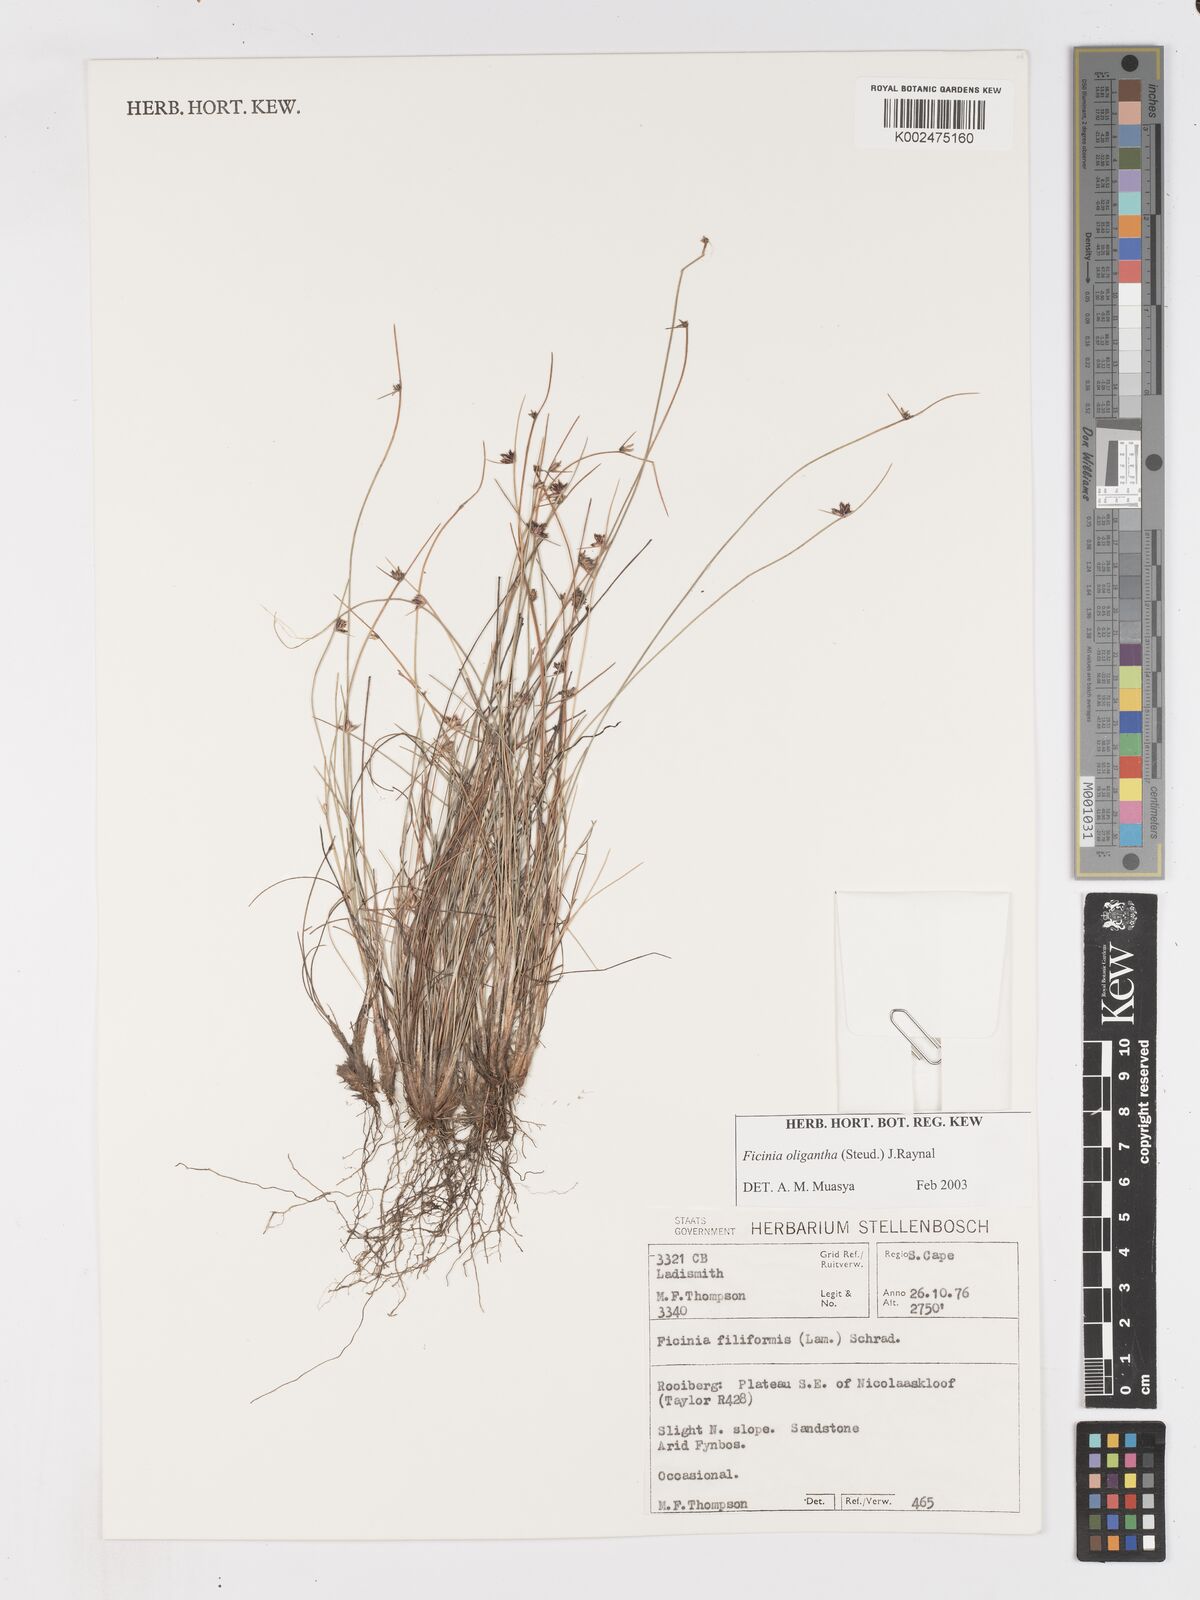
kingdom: Plantae
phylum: Tracheophyta
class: Liliopsida
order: Poales
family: Cyperaceae
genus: Ficinia
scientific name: Ficinia stolonifera
